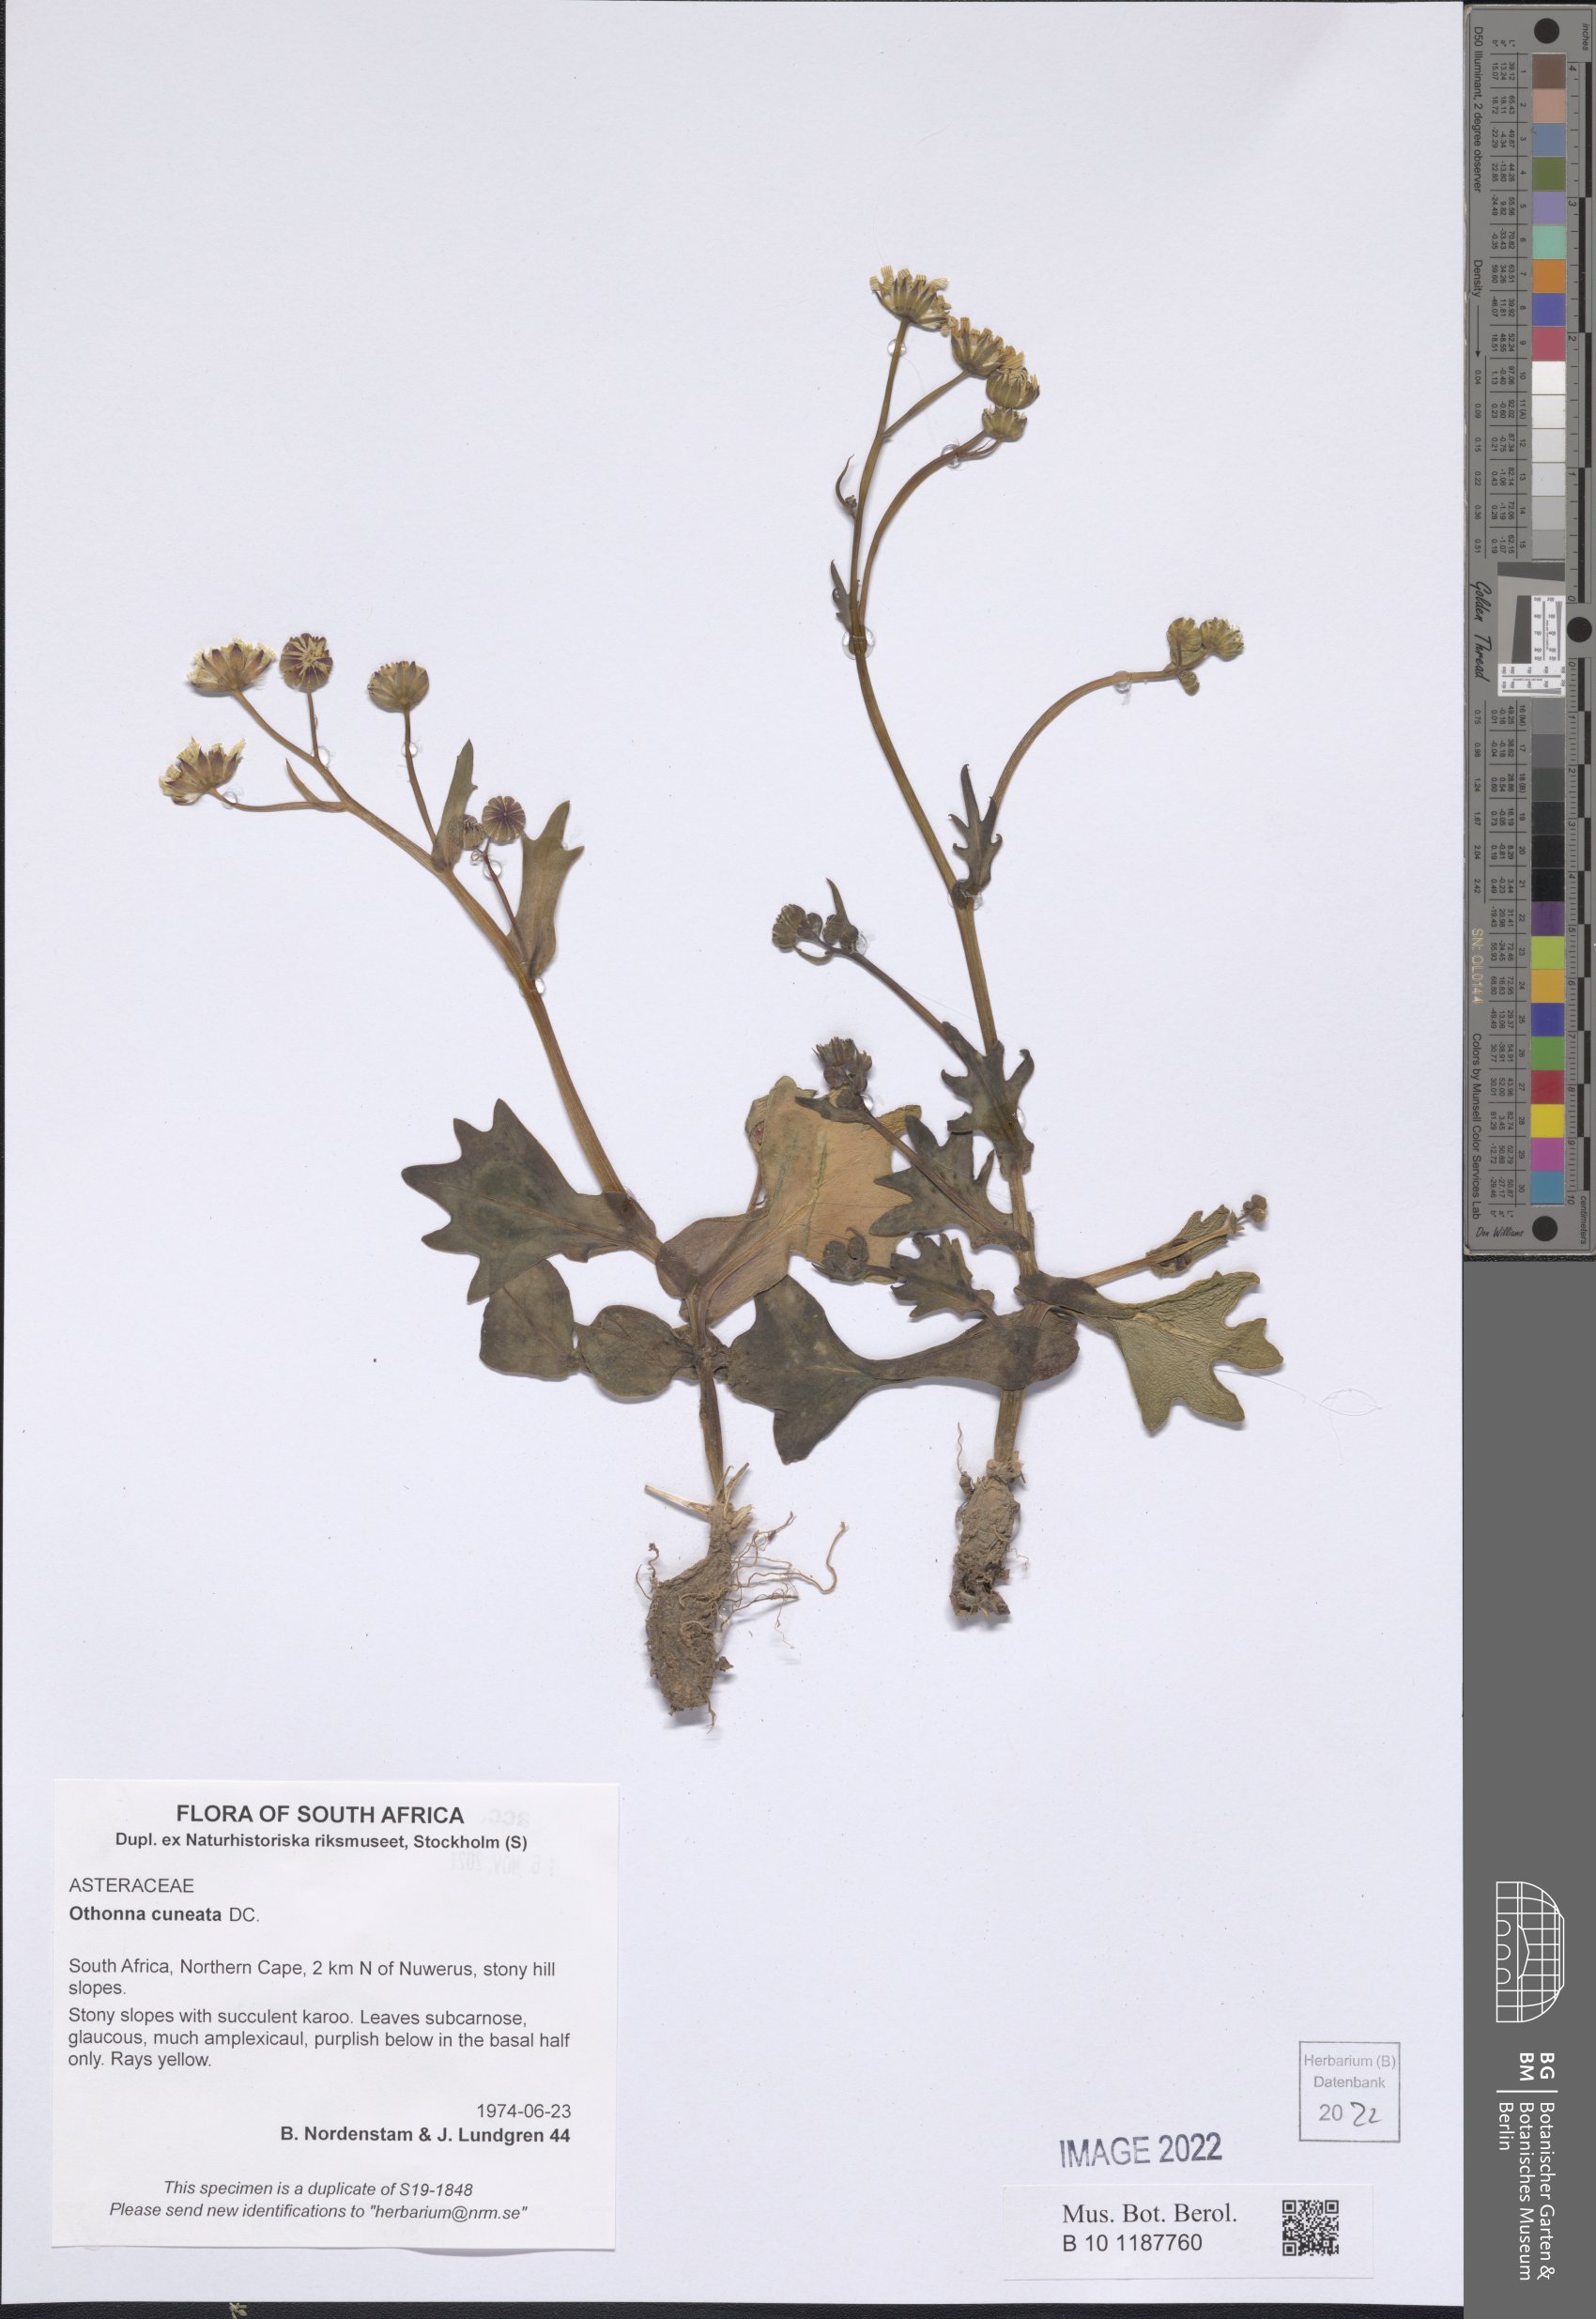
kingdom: Plantae
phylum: Tracheophyta
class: Magnoliopsida
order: Asterales
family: Asteraceae
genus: Othonna
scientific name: Othonna cuneata
